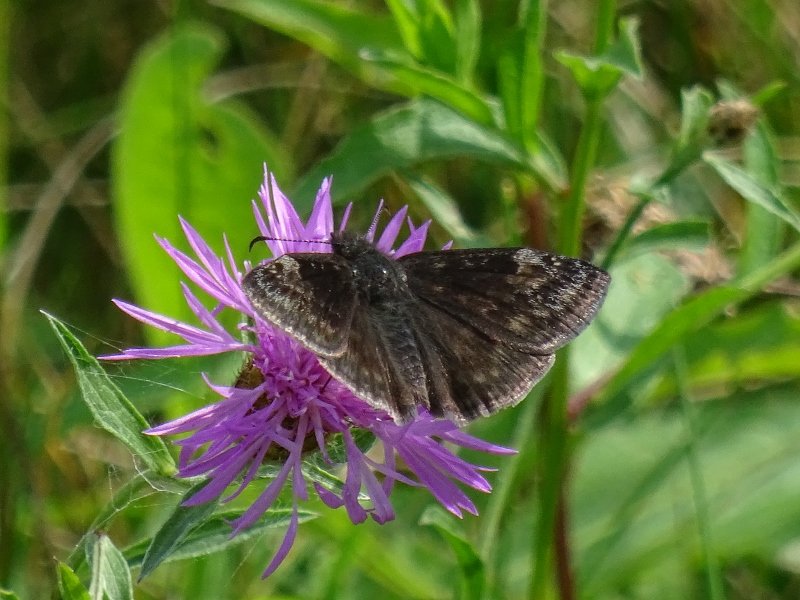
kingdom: Animalia
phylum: Arthropoda
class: Insecta
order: Lepidoptera
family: Hesperiidae
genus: Gesta
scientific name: Gesta
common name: Wild Indigo Duskywing
